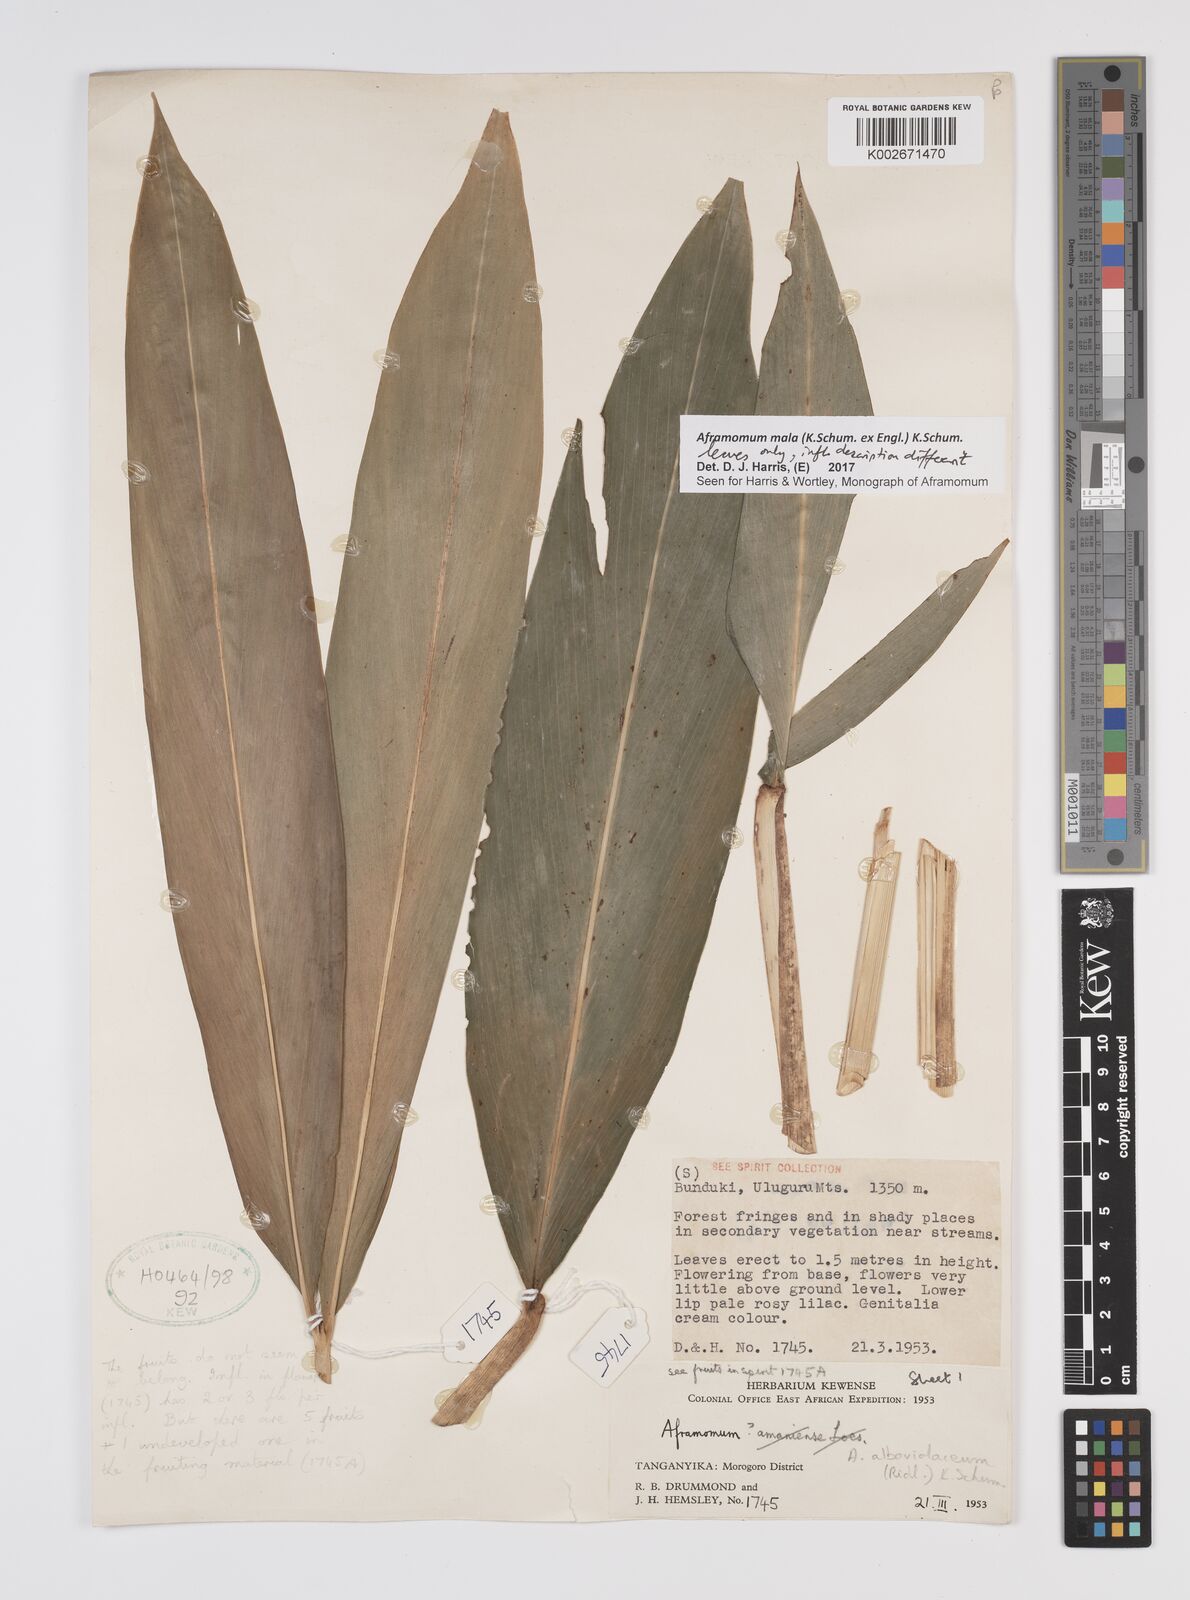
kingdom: Plantae
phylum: Tracheophyta
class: Liliopsida
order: Zingiberales
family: Zingiberaceae
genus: Aframomum
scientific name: Aframomum mala
